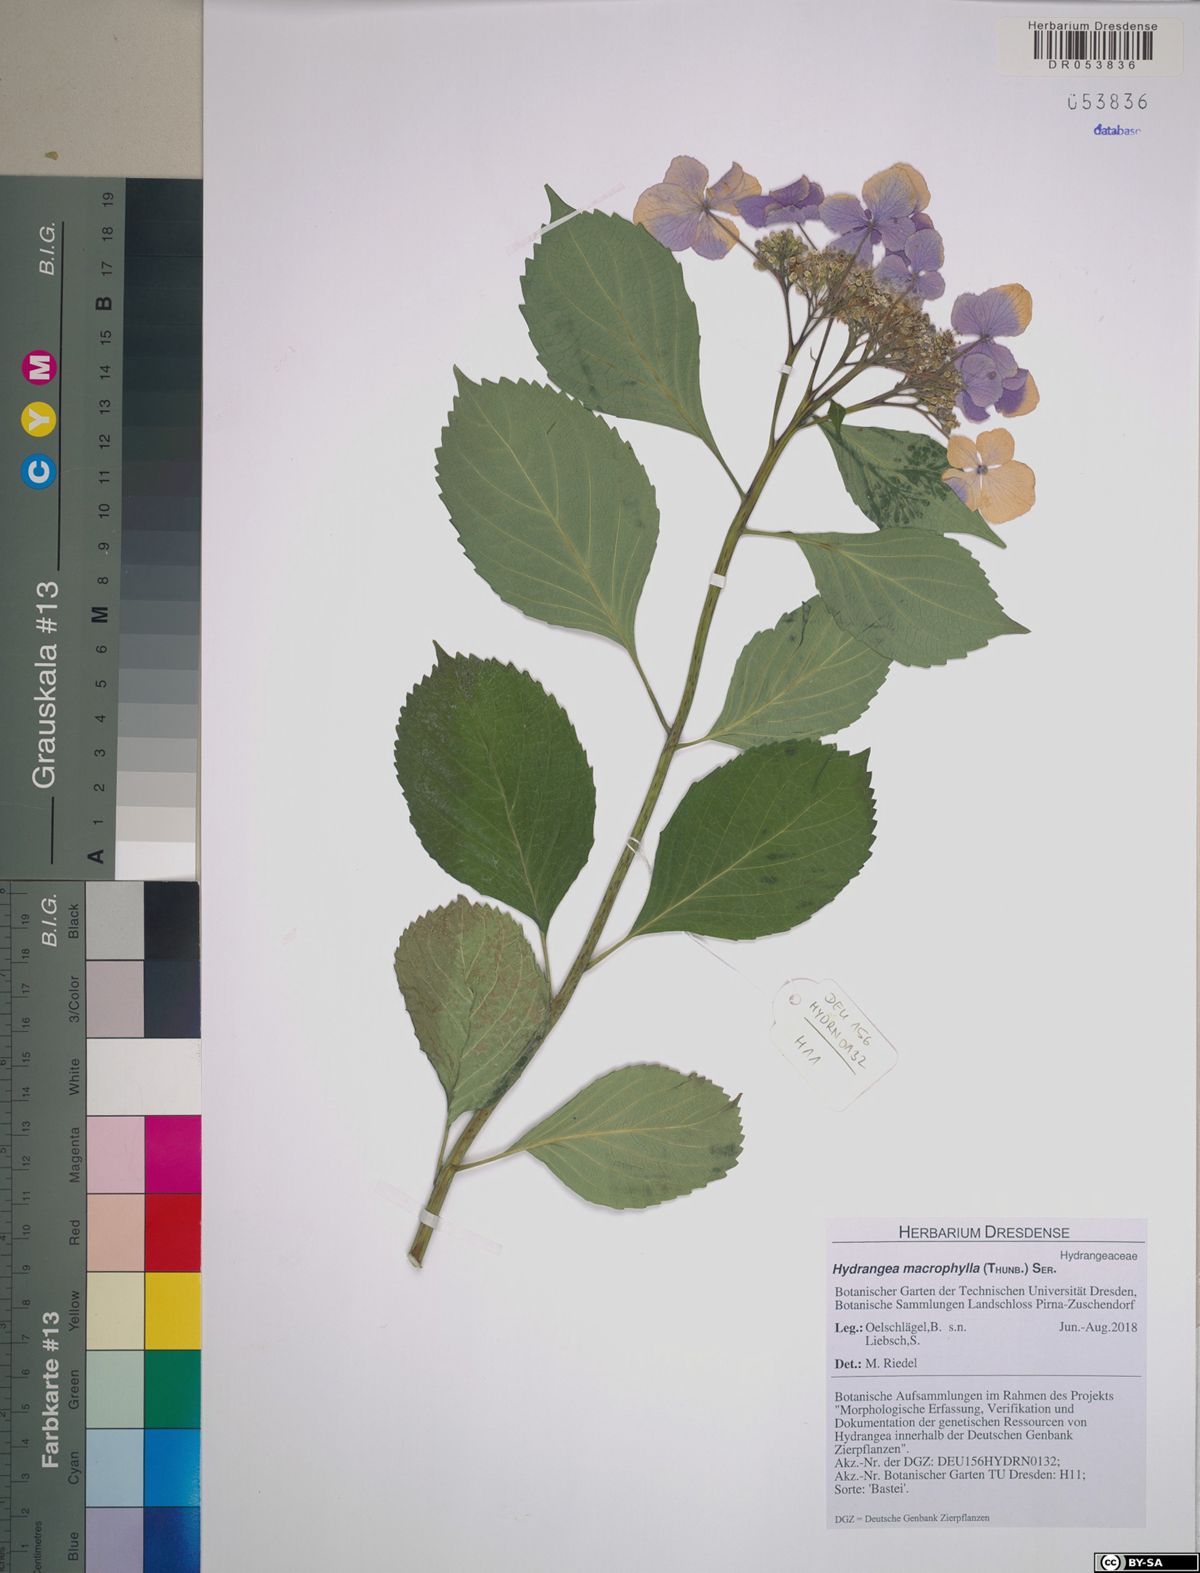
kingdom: Plantae
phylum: Tracheophyta
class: Magnoliopsida
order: Cornales
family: Hydrangeaceae
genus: Hydrangea
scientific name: Hydrangea macrophylla
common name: Hydrangea
